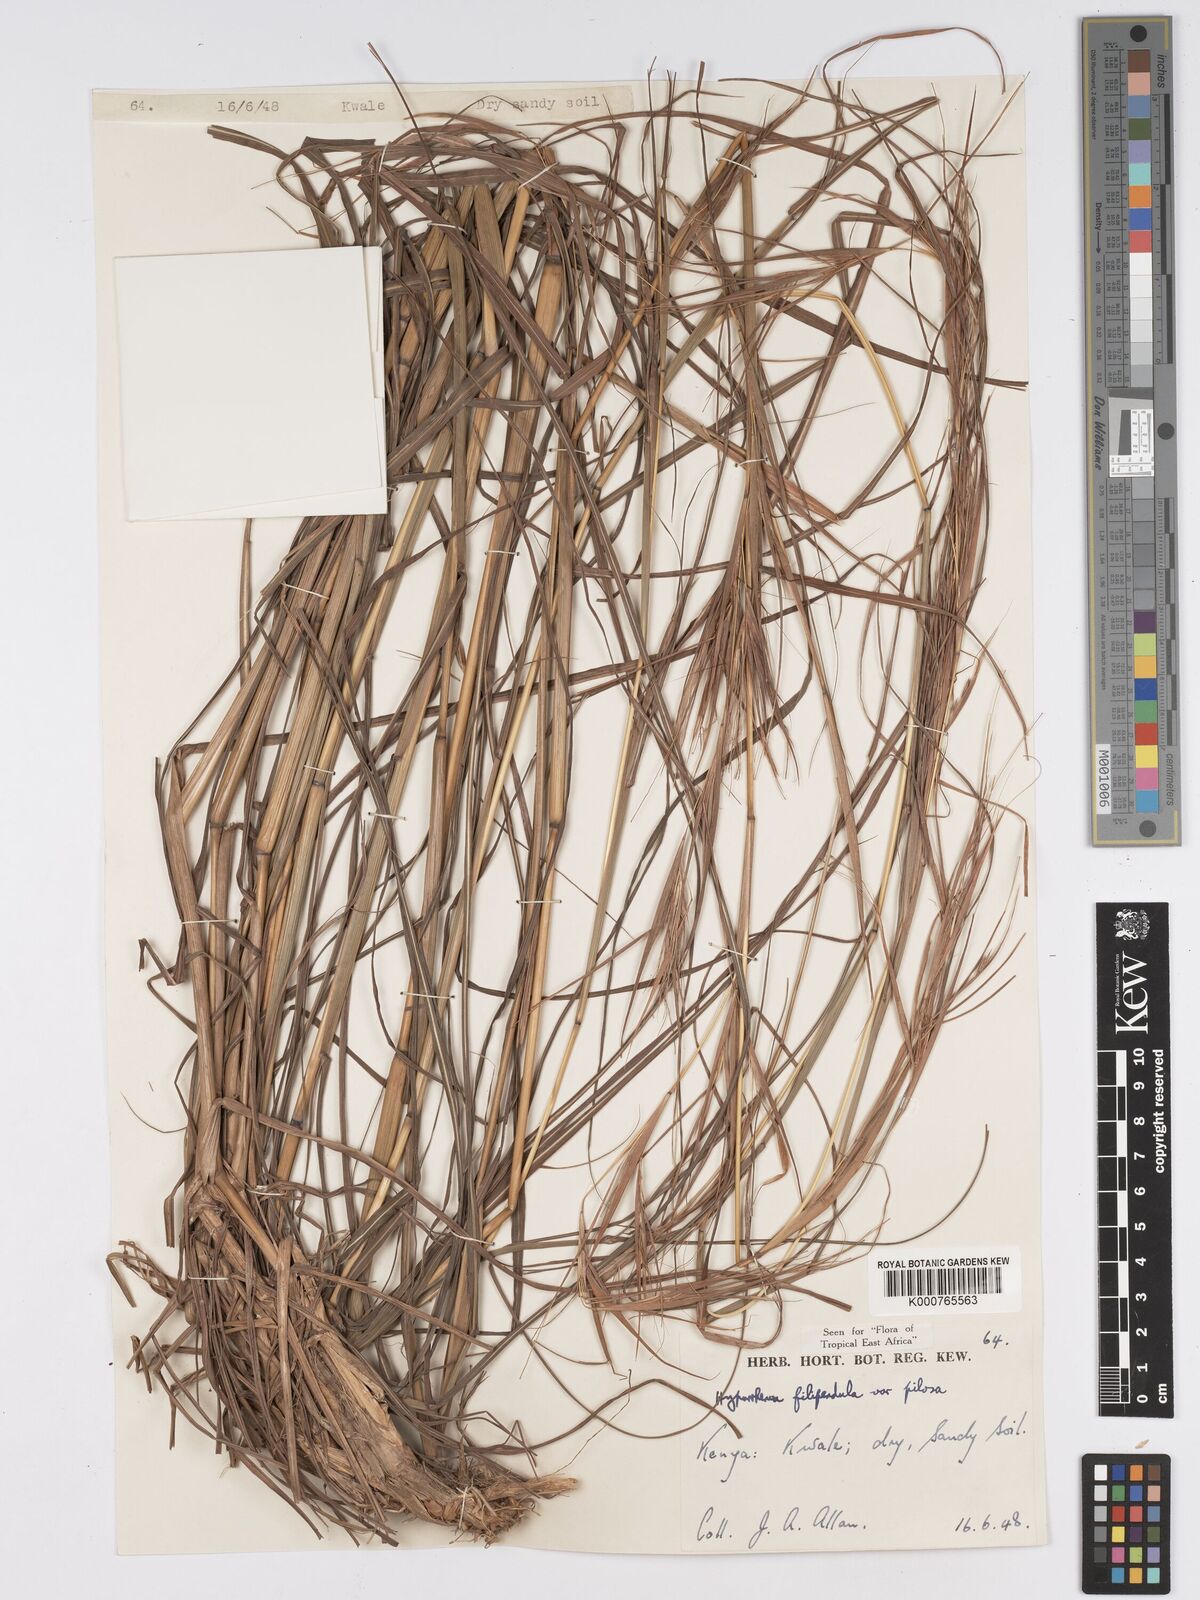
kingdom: Plantae
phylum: Tracheophyta
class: Liliopsida
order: Poales
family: Poaceae
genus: Hyparrhenia
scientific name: Hyparrhenia filipendula
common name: Tambookie grass
